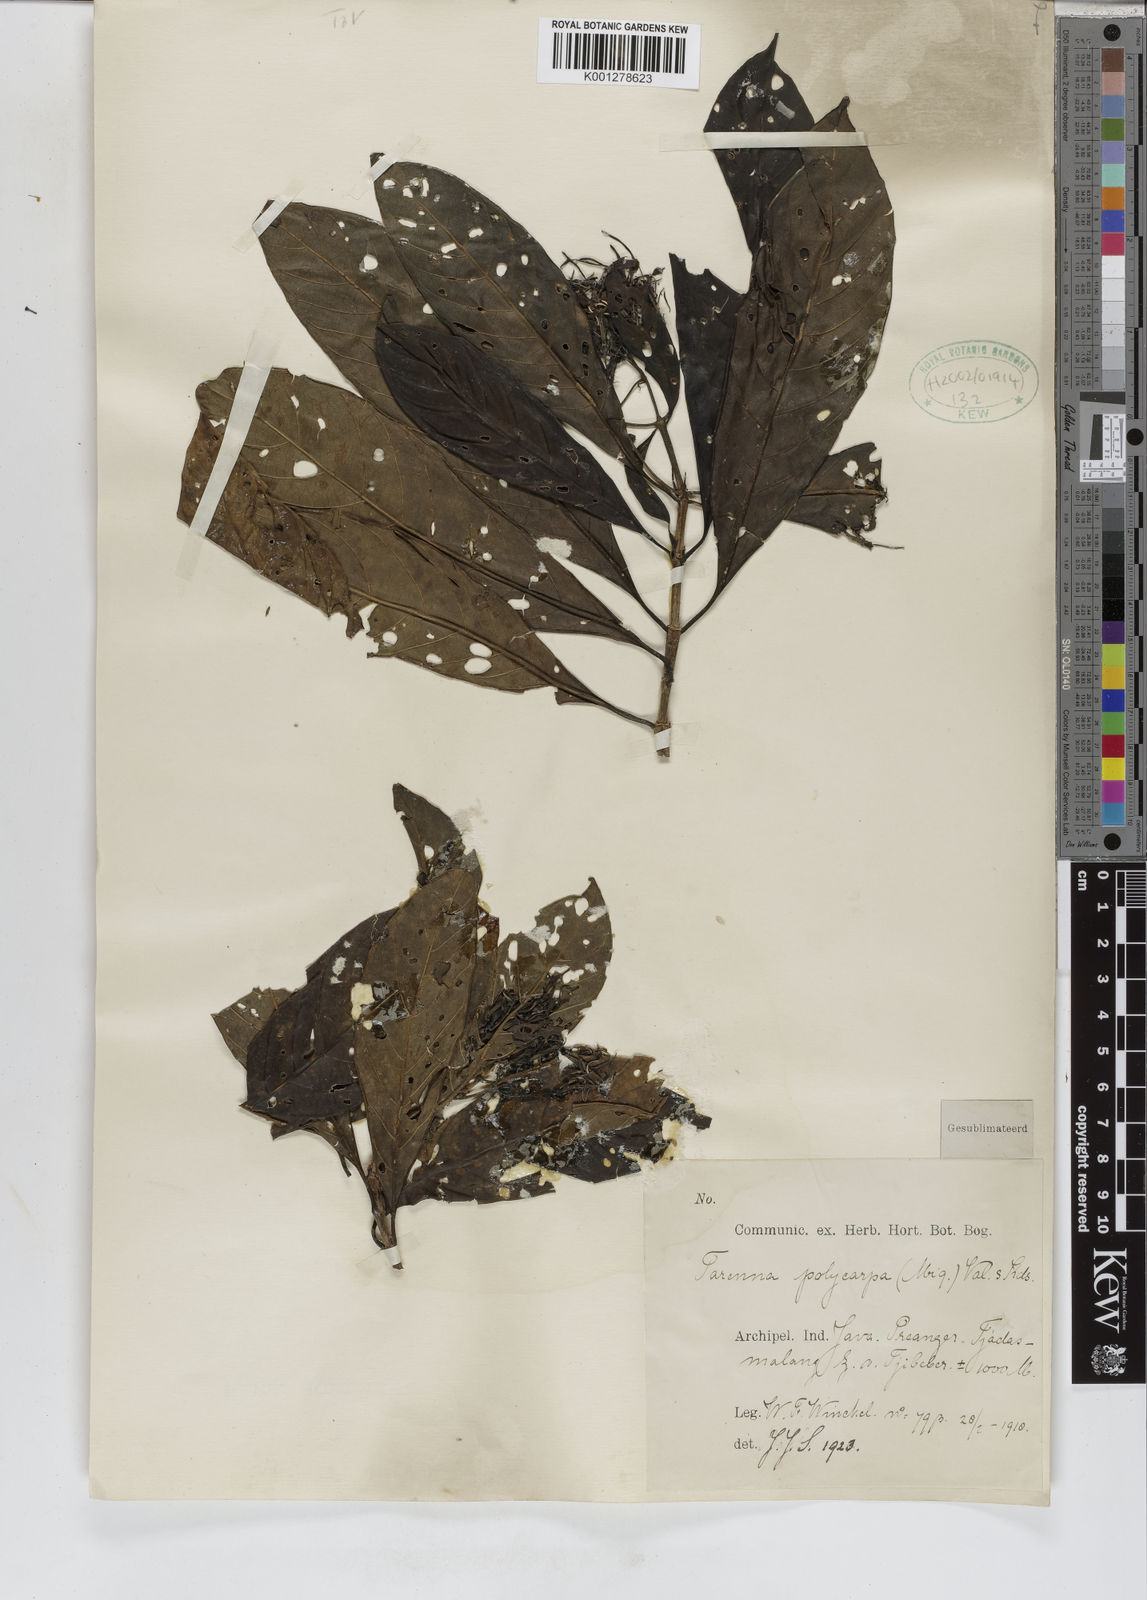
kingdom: Plantae
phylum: Tracheophyta
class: Magnoliopsida
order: Gentianales
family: Rubiaceae
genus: Tarenna
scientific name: Tarenna polycarpa
